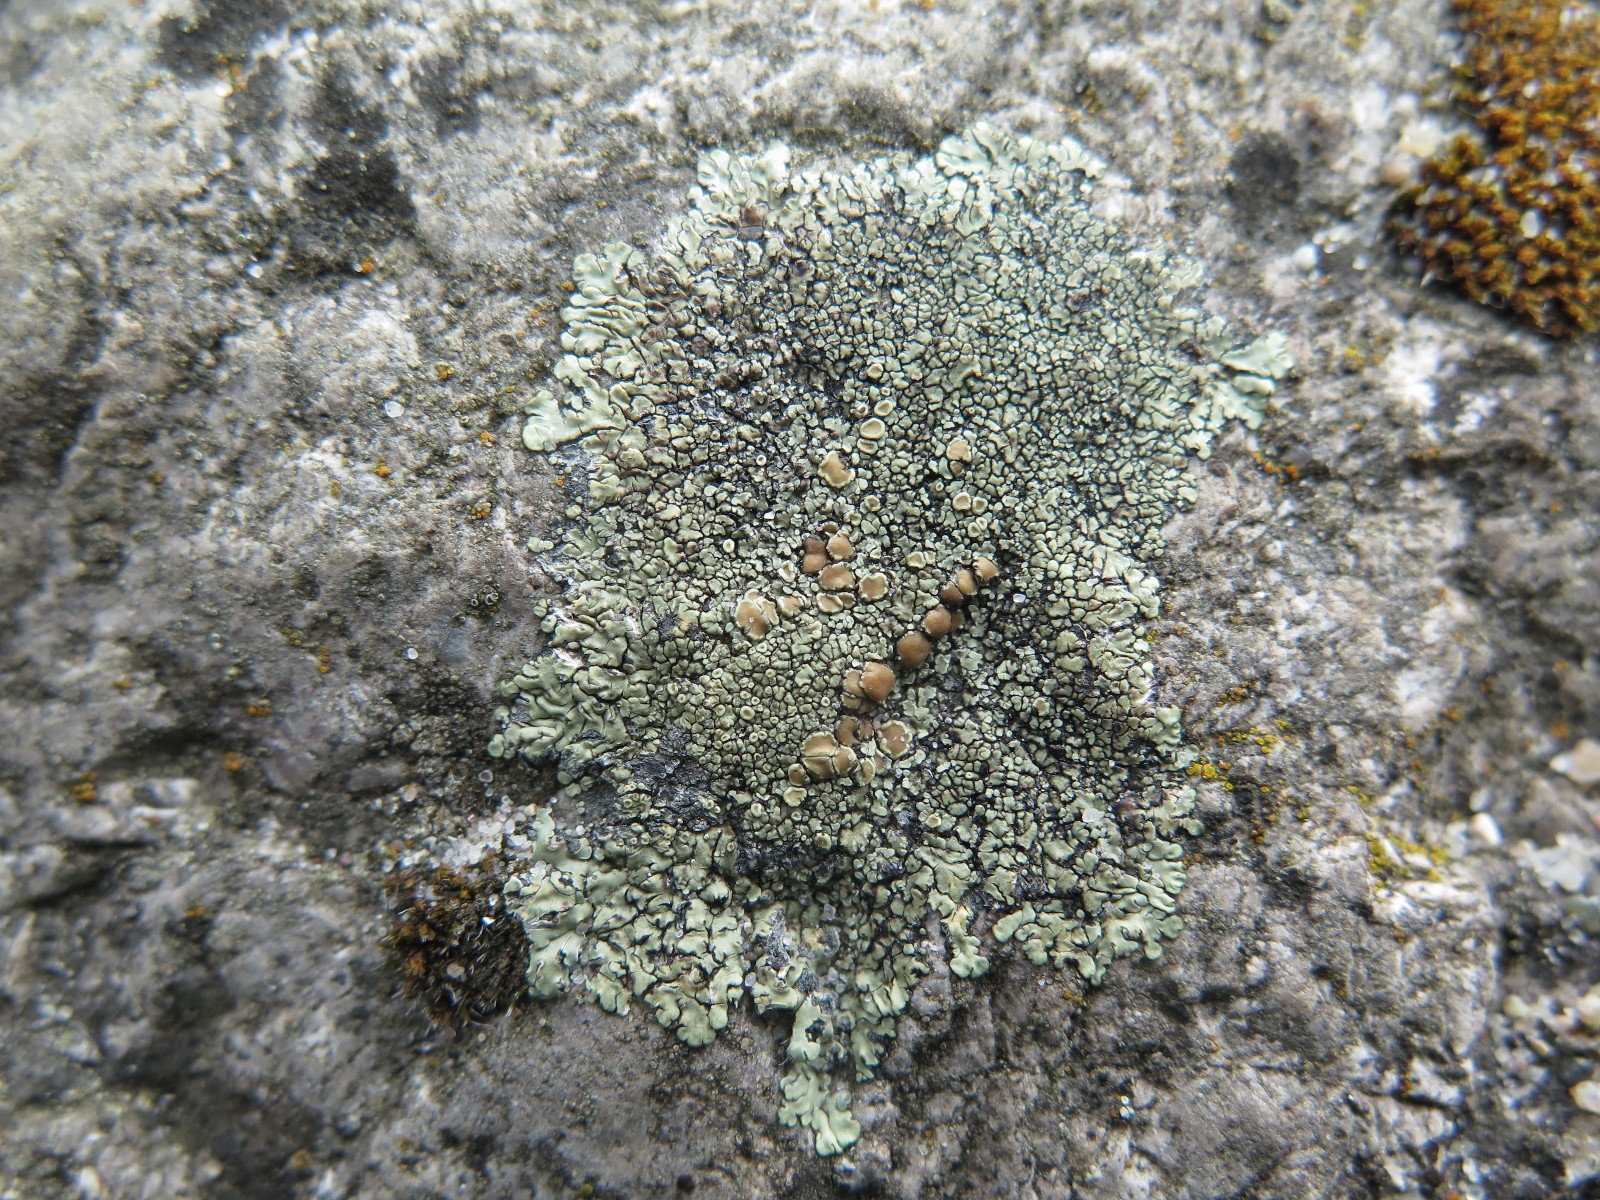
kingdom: Fungi
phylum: Ascomycota
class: Lecanoromycetes
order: Lecanorales
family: Lecanoraceae
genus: Protoparmeliopsis
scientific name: Protoparmeliopsis muralis
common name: randfliget kantskivelav
